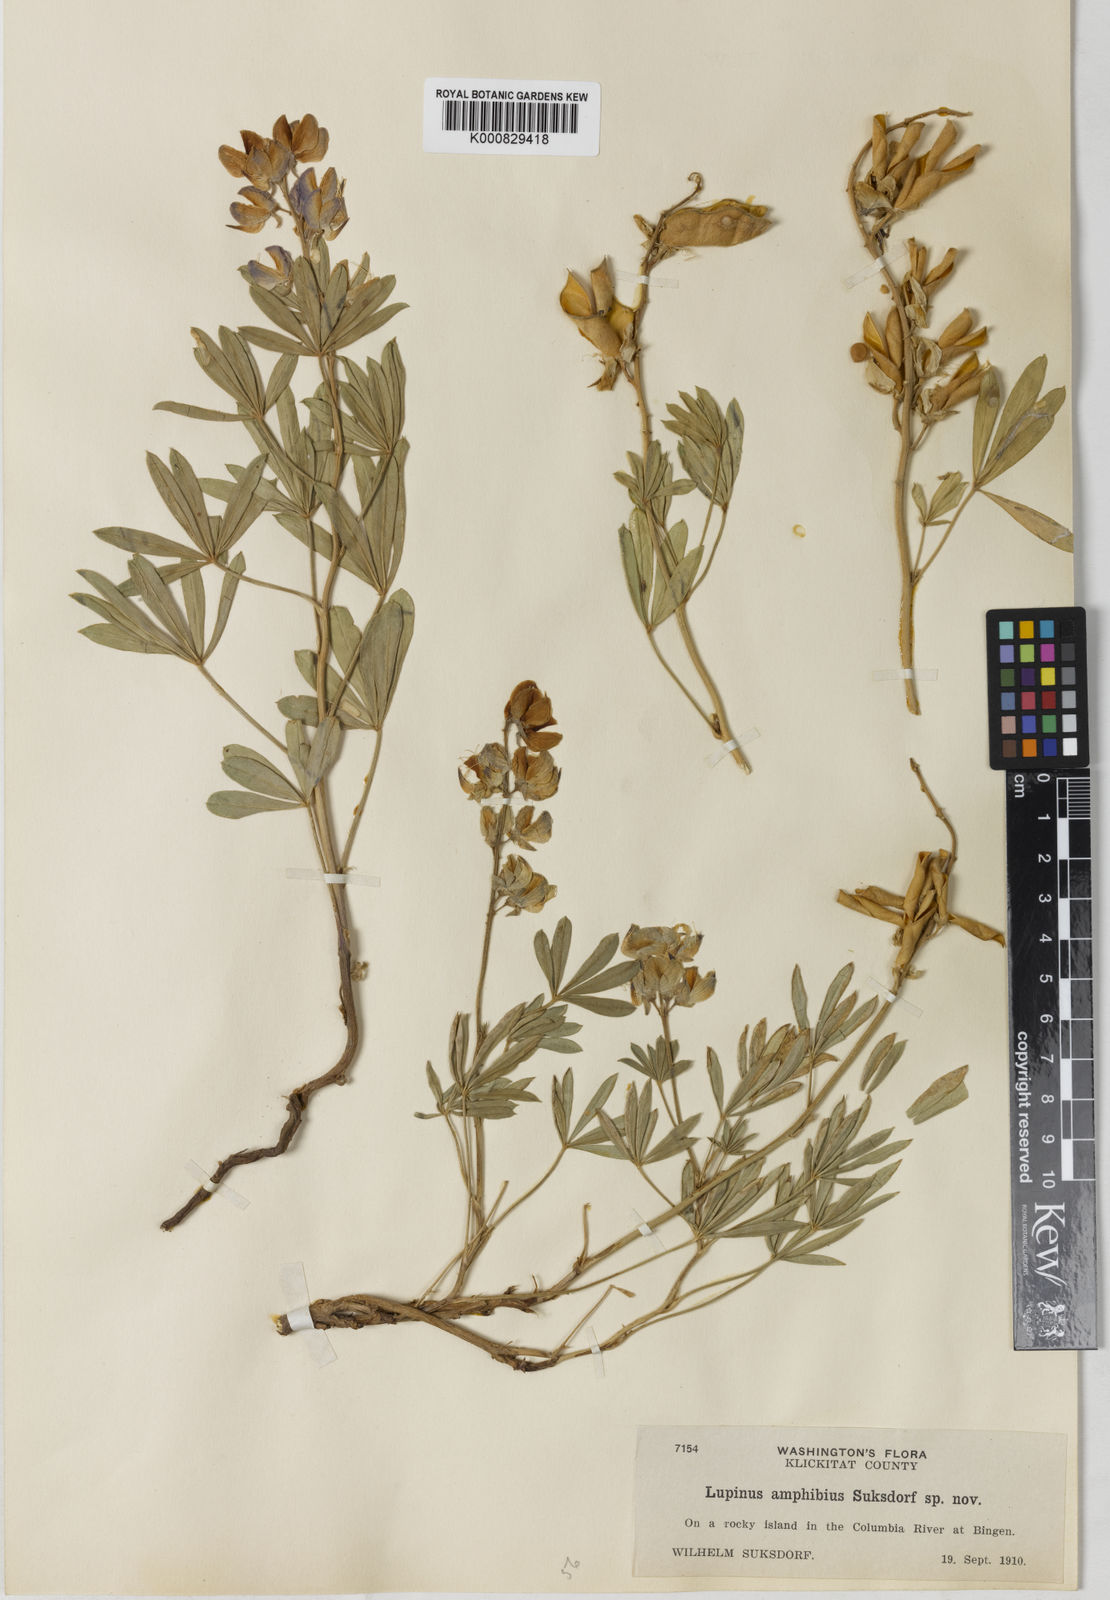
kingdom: Plantae
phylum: Tracheophyta
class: Magnoliopsida
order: Fabales
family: Fabaceae
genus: Lupinus
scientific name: Lupinus amphibius
